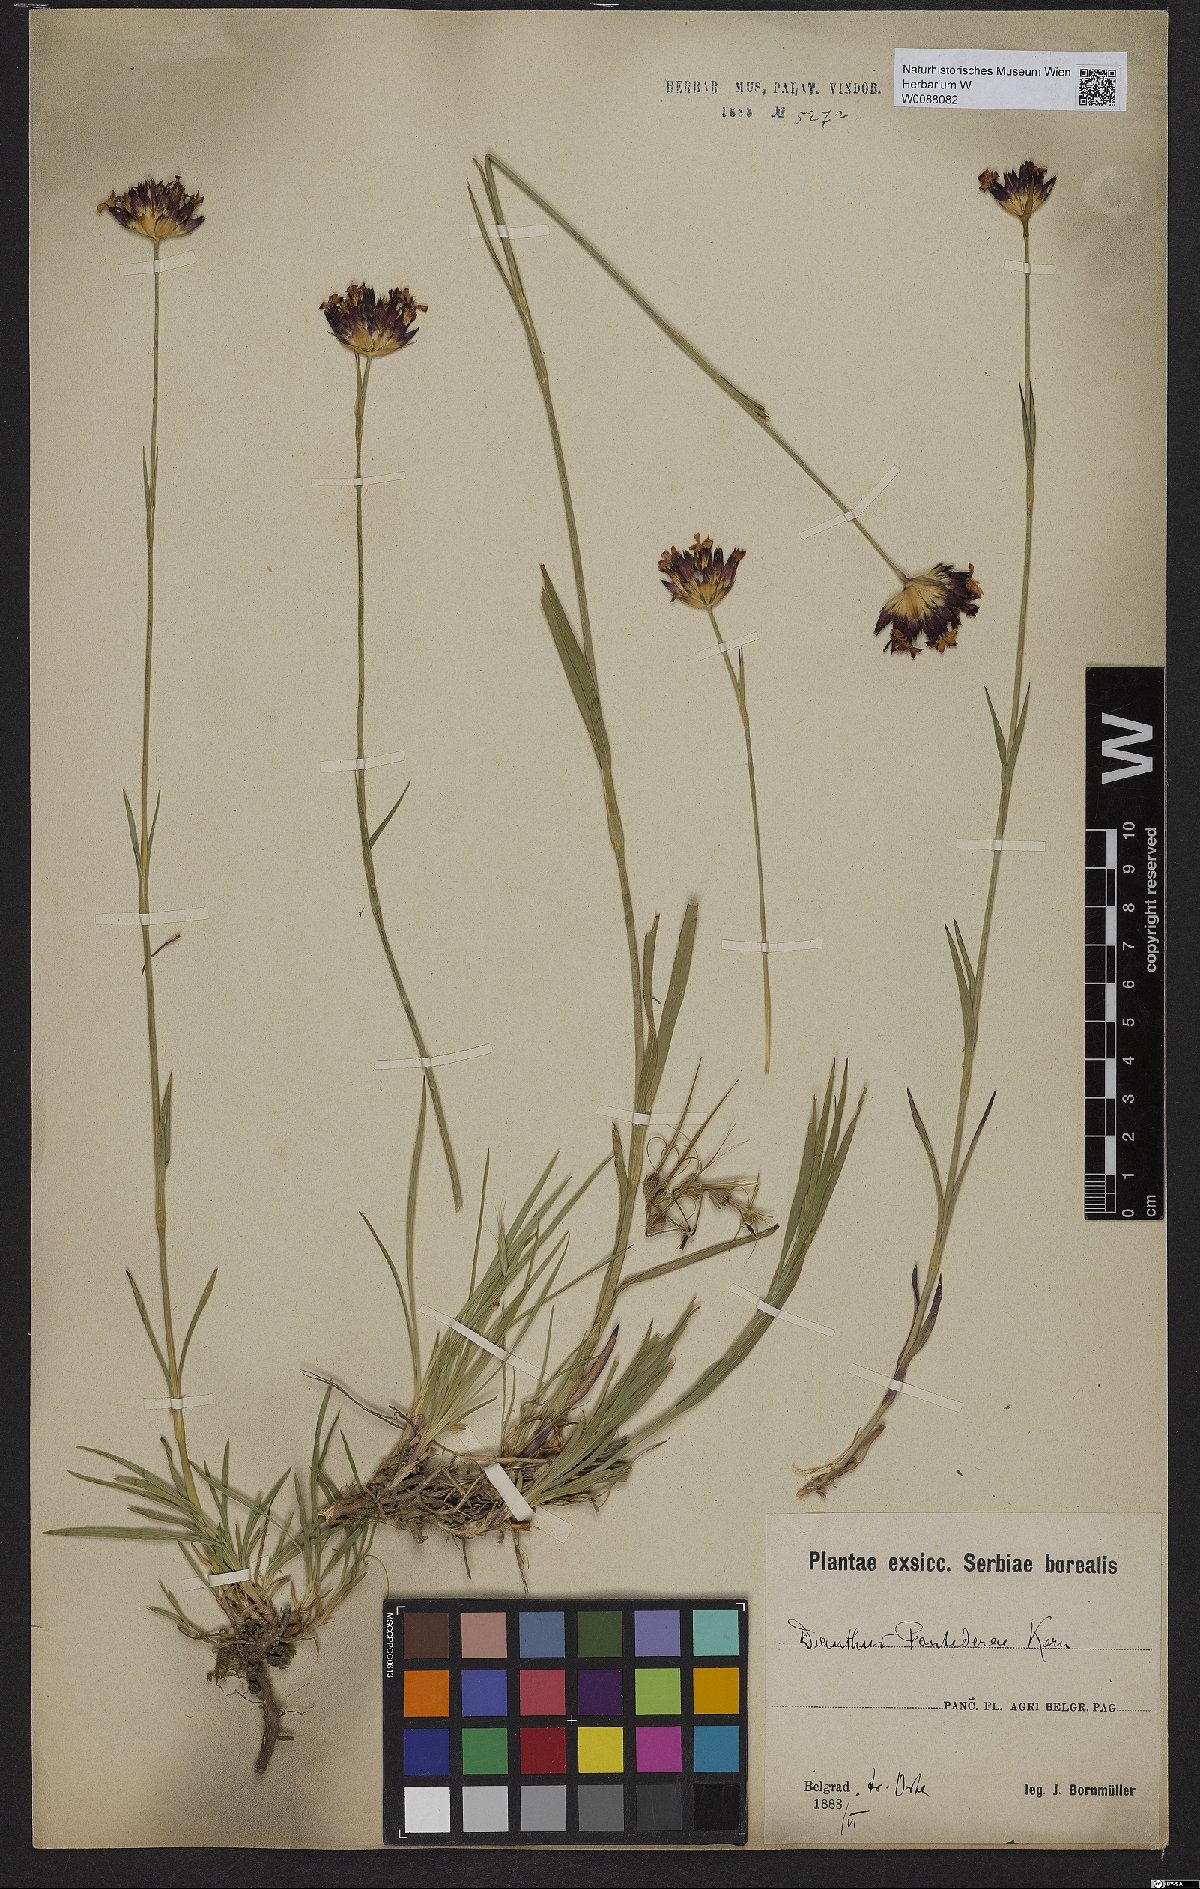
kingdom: Plantae
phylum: Tracheophyta
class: Magnoliopsida
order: Caryophyllales
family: Caryophyllaceae
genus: Dianthus
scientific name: Dianthus pontederae
